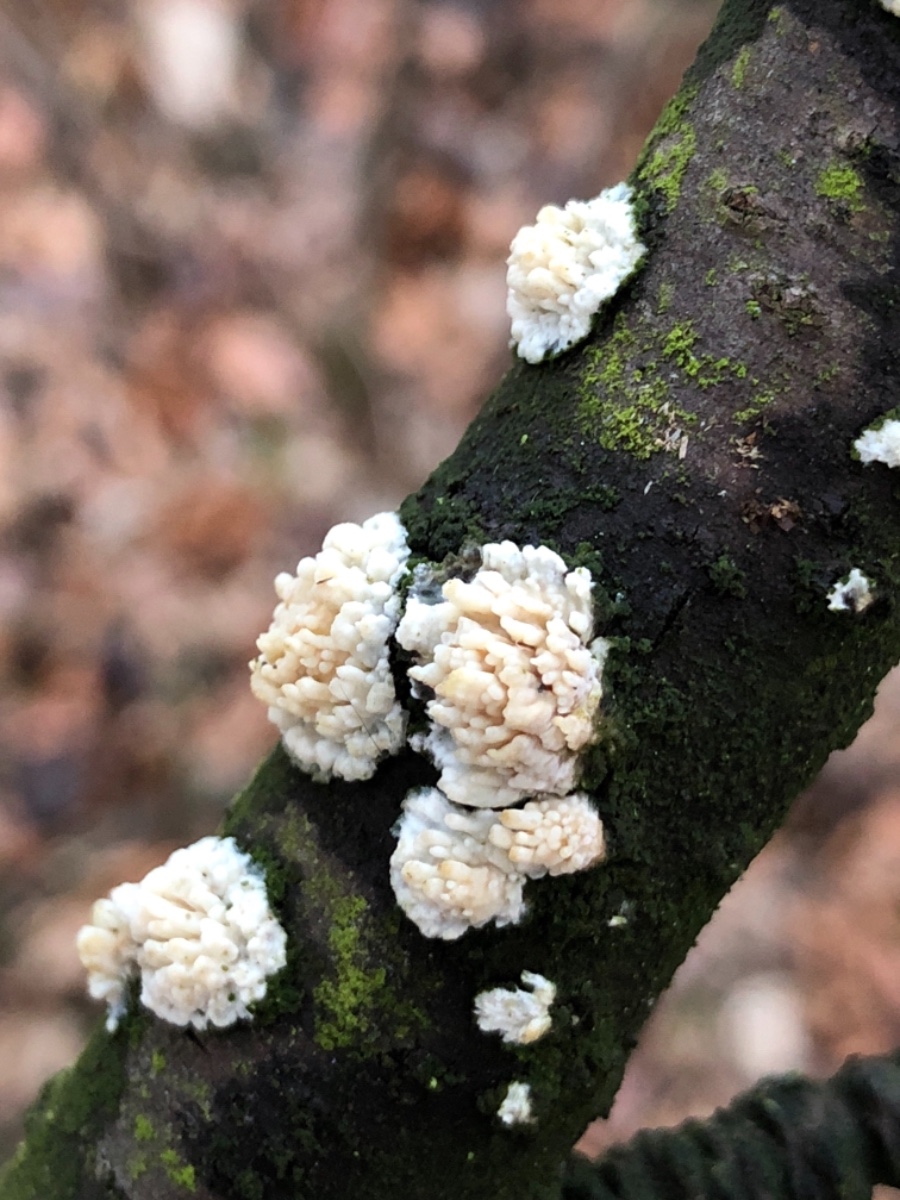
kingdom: Fungi
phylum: Basidiomycota
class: Agaricomycetes
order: Hymenochaetales
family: Schizoporaceae
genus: Xylodon
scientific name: Xylodon radula
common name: grovtandet kalkskind
